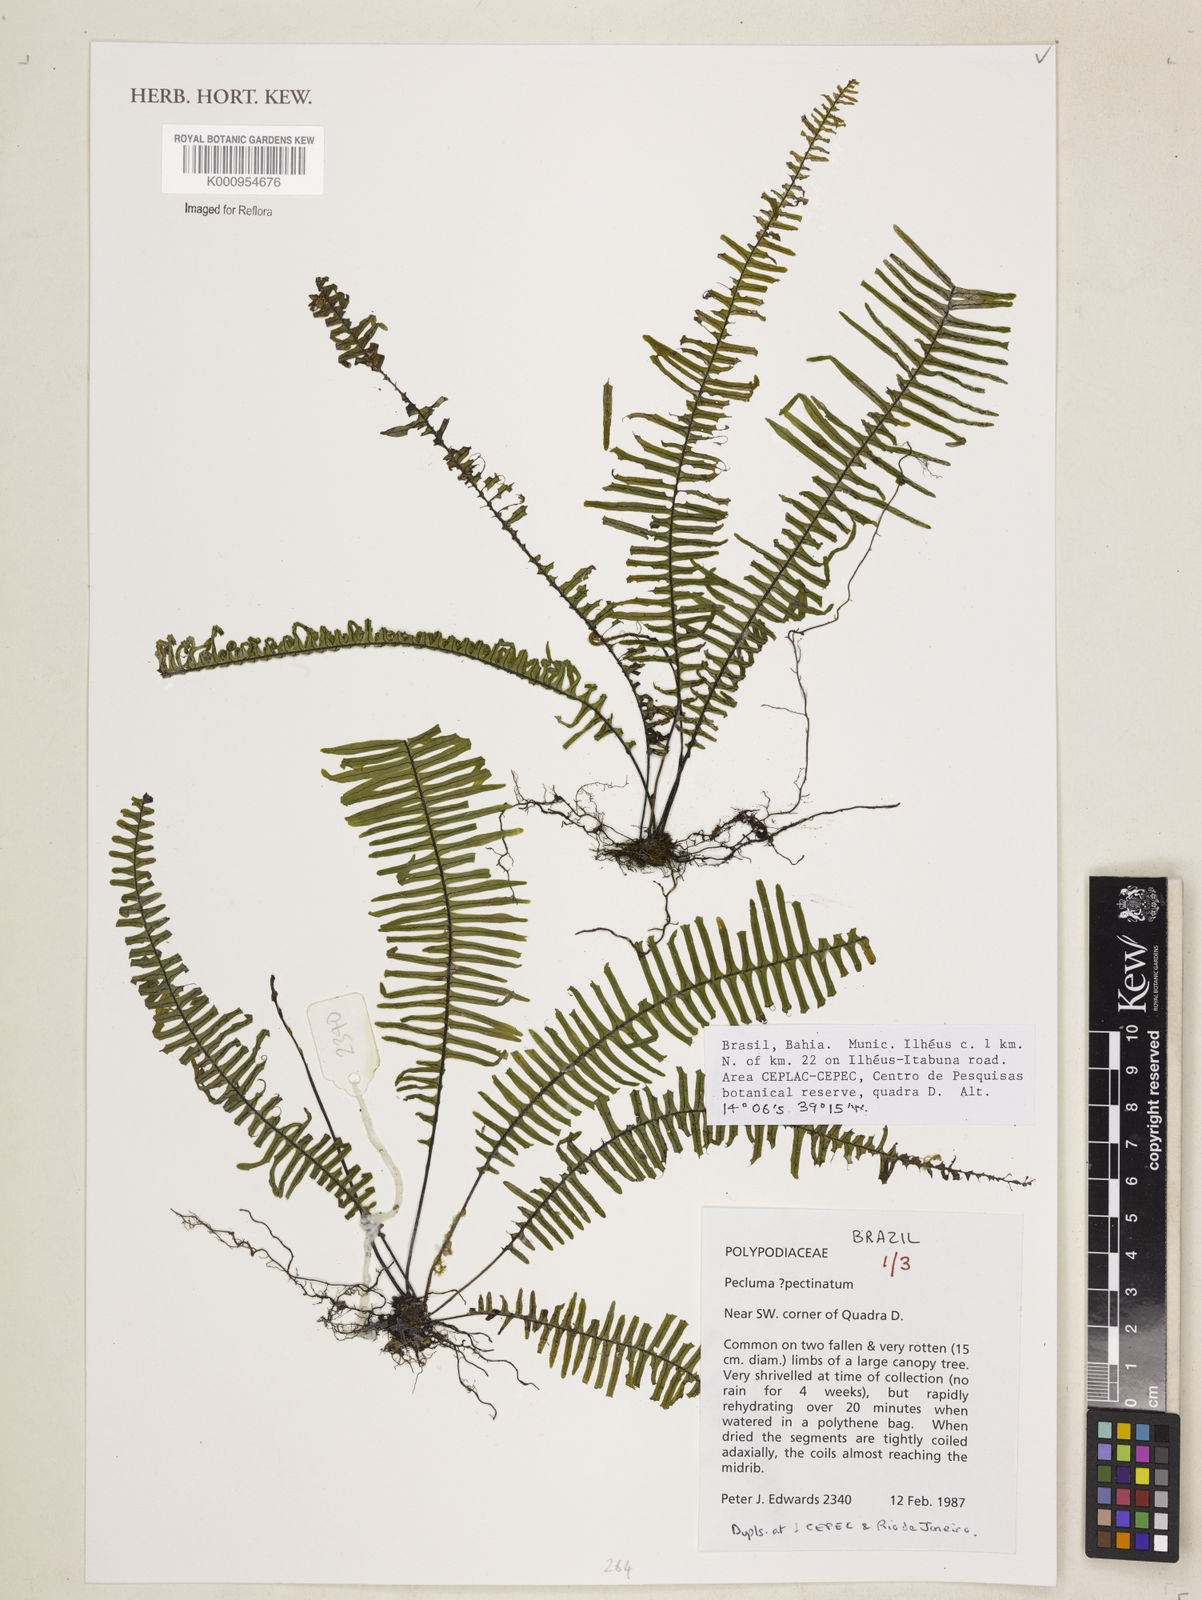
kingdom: Plantae
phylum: Tracheophyta
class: Polypodiopsida
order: Polypodiales
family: Polypodiaceae
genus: Pecluma
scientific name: Pecluma pectinata
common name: Msasa fern
